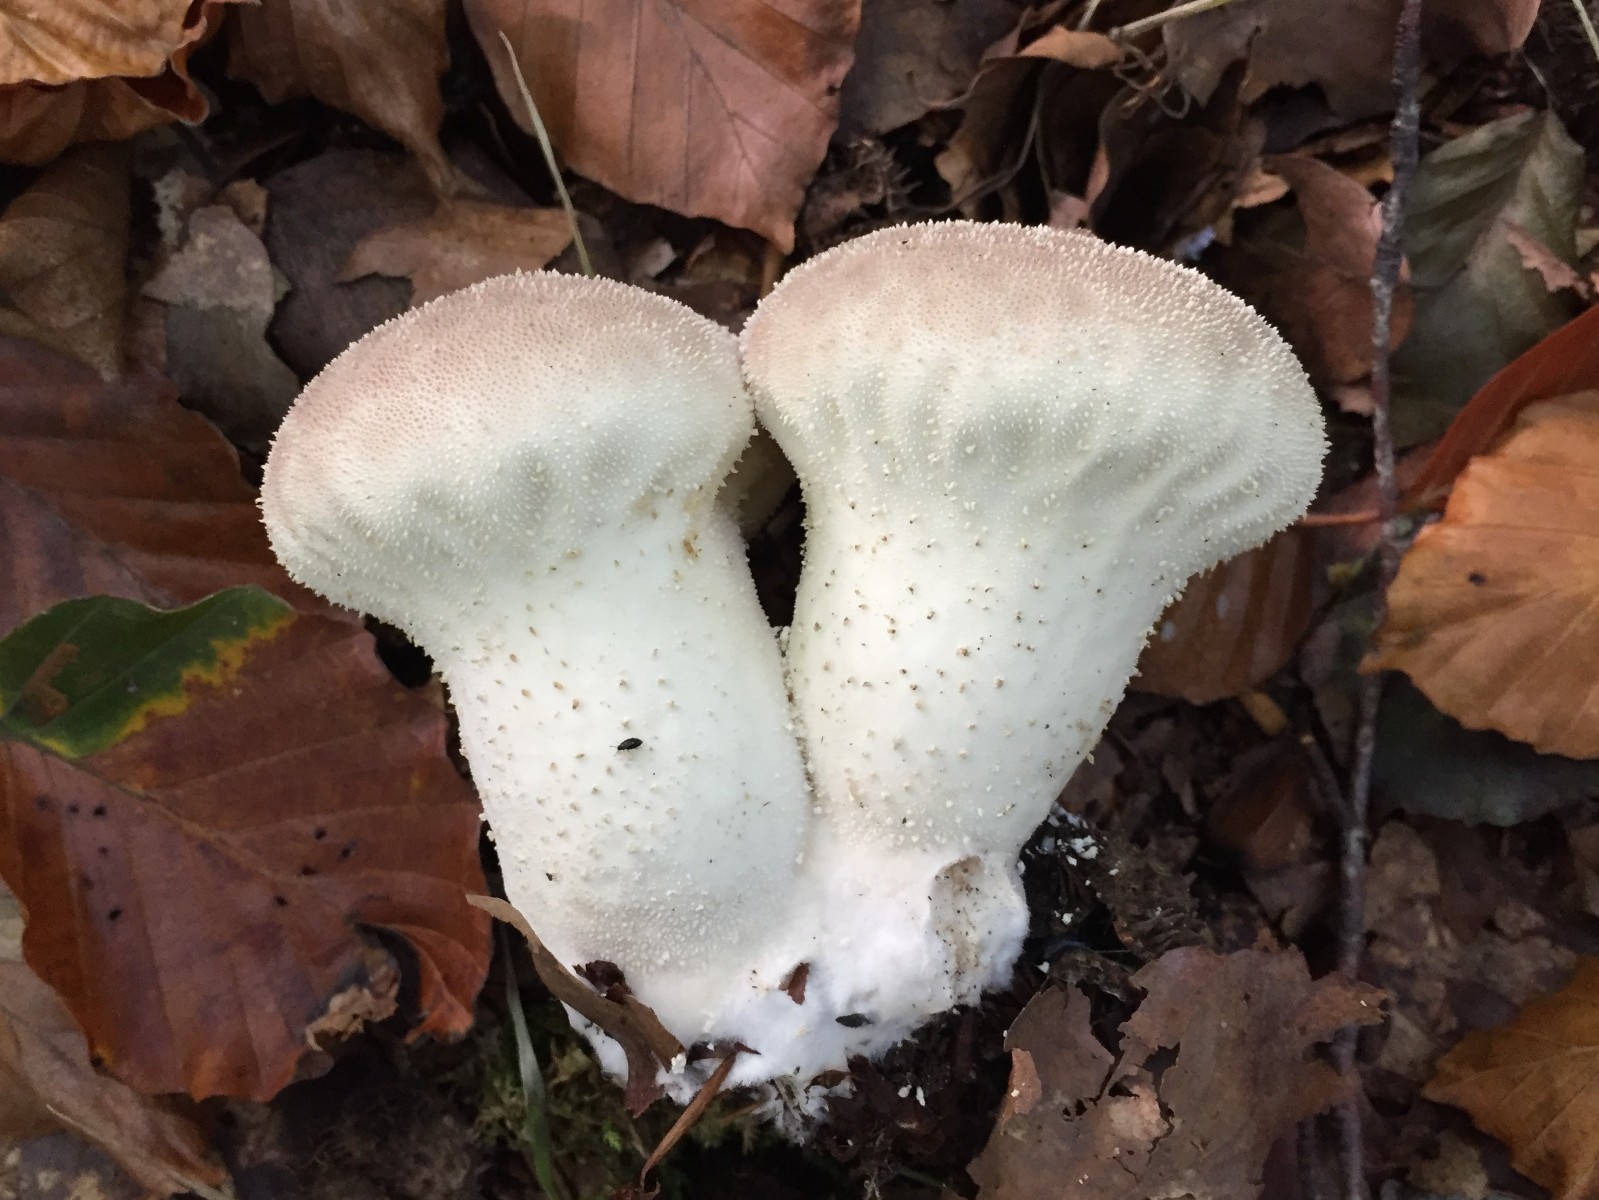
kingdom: Fungi
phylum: Basidiomycota
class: Agaricomycetes
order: Agaricales
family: Lycoperdaceae
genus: Lycoperdon
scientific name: Lycoperdon excipuliforme
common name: højstokket støvbold
